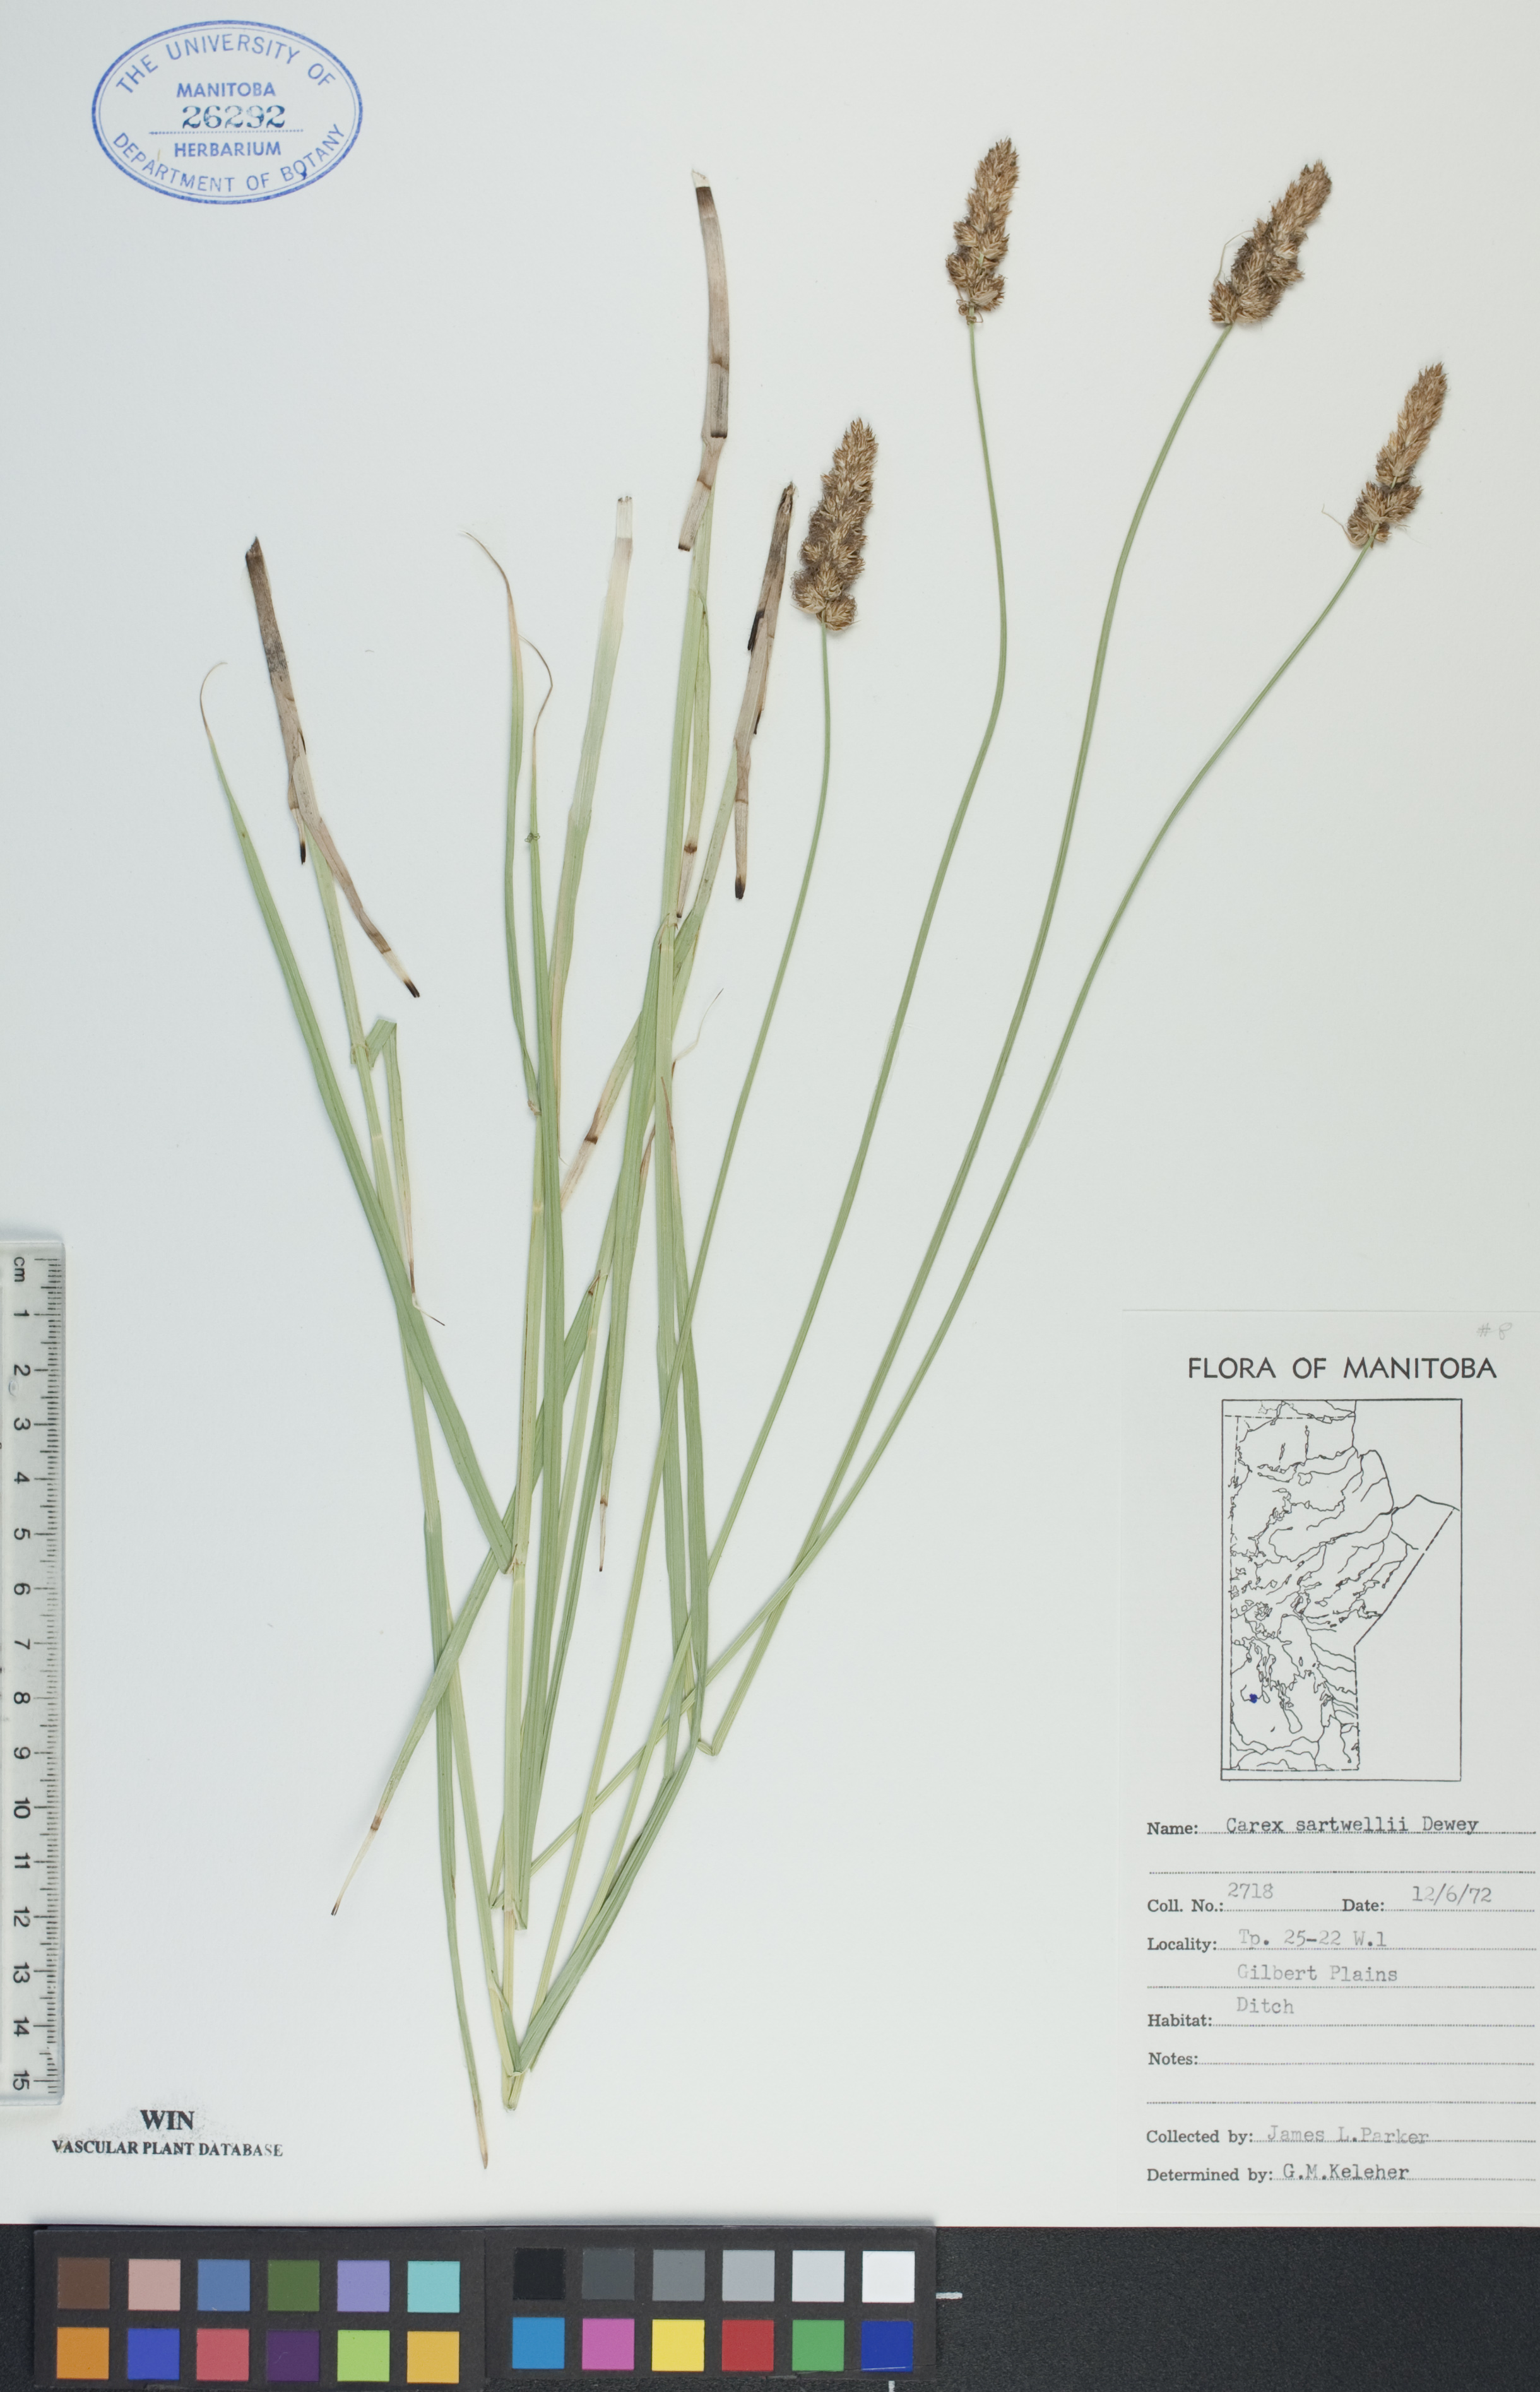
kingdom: Plantae
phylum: Tracheophyta
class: Liliopsida
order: Poales
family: Cyperaceae
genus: Carex
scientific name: Carex sartwellii
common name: Sartwell's sedge
